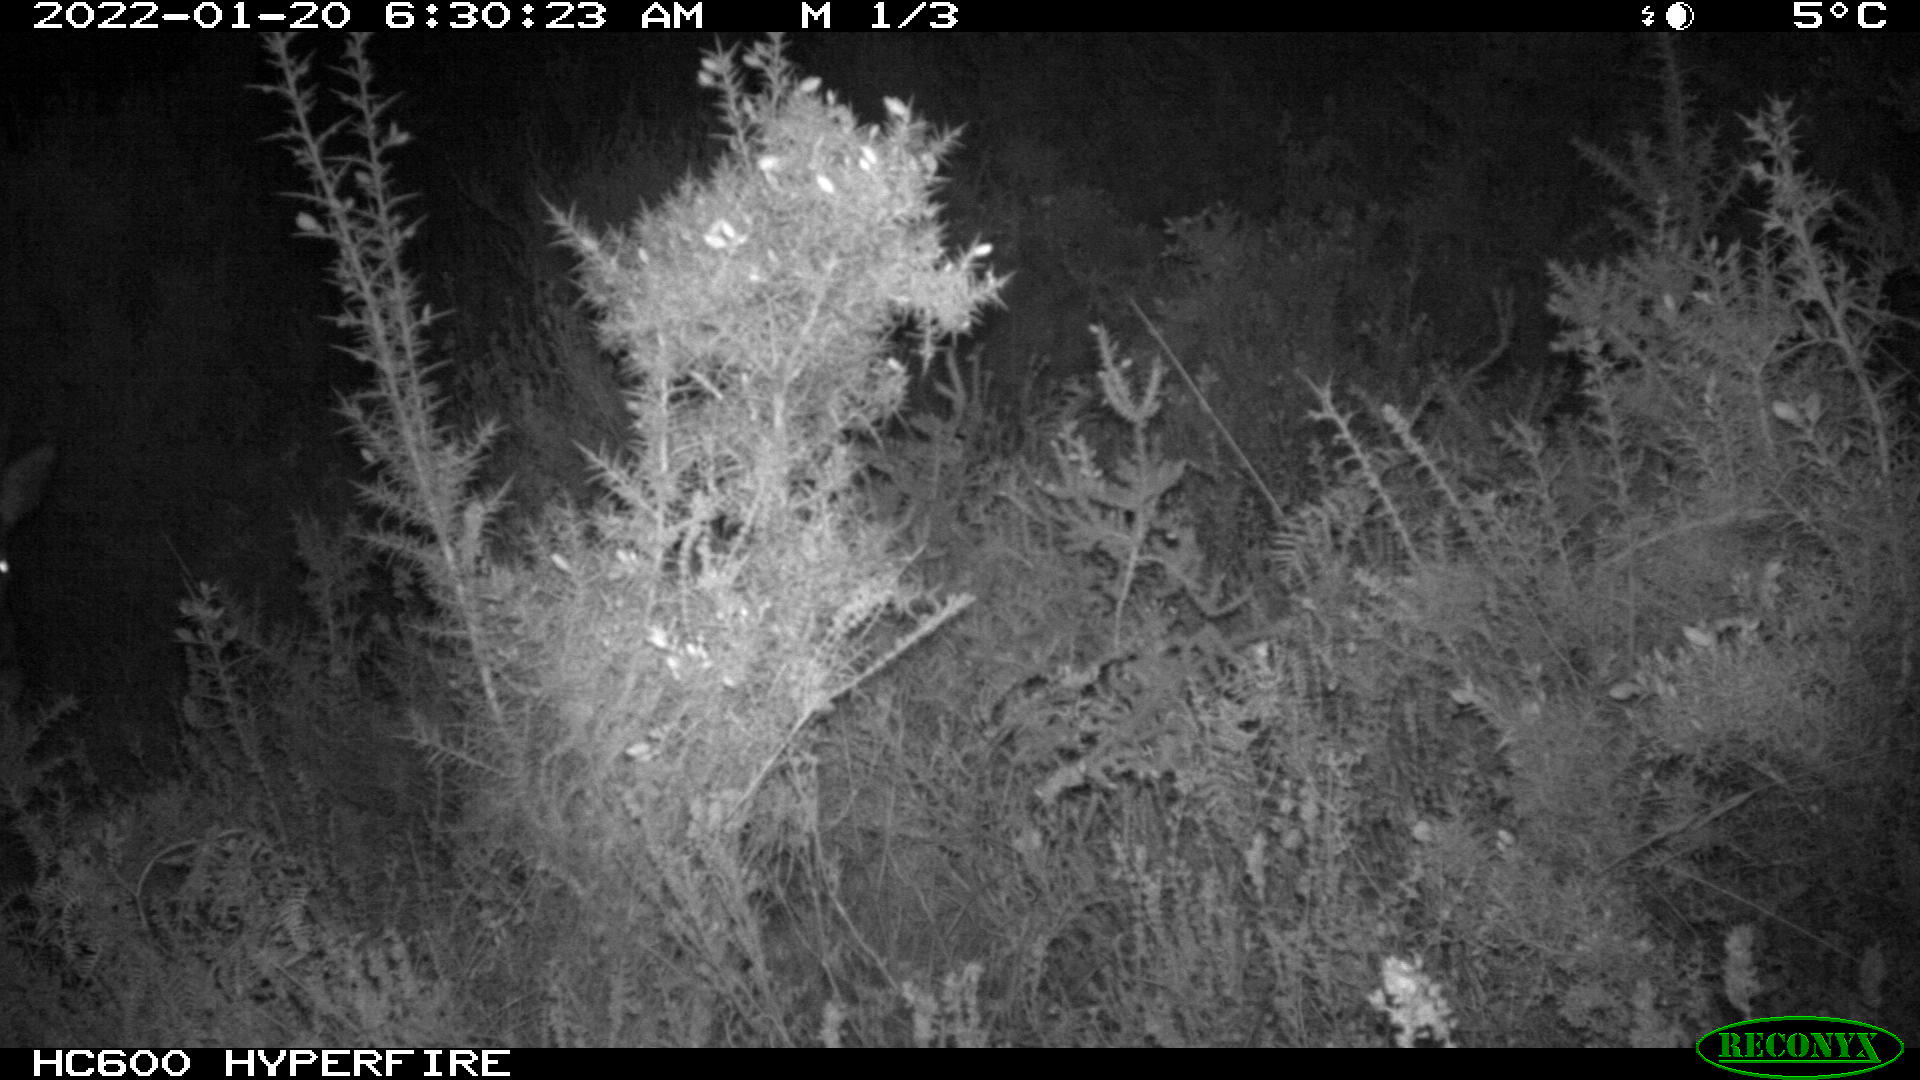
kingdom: Animalia
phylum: Chordata
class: Mammalia
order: Artiodactyla
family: Cervidae
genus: Capreolus
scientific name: Capreolus capreolus
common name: Western roe deer
